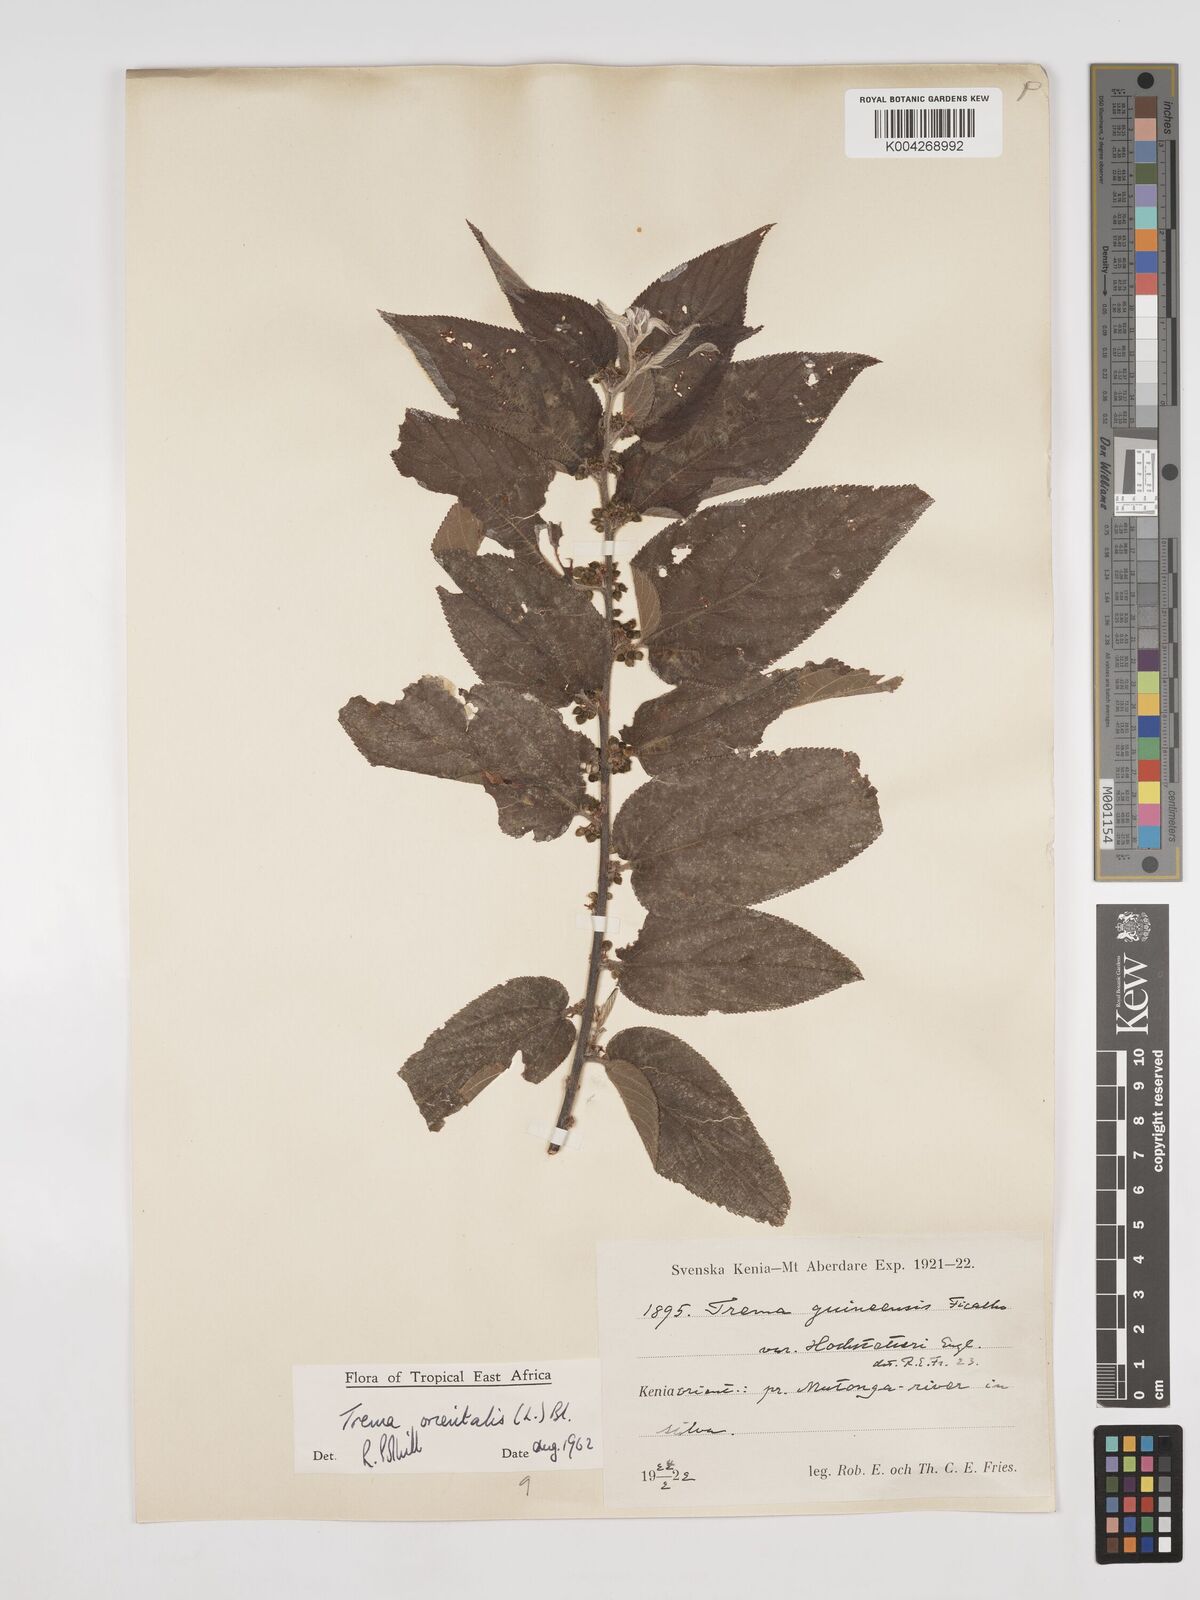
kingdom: Plantae
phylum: Tracheophyta
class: Magnoliopsida
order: Rosales
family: Cannabaceae
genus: Trema
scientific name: Trema orientale
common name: Indian charcoal tree
